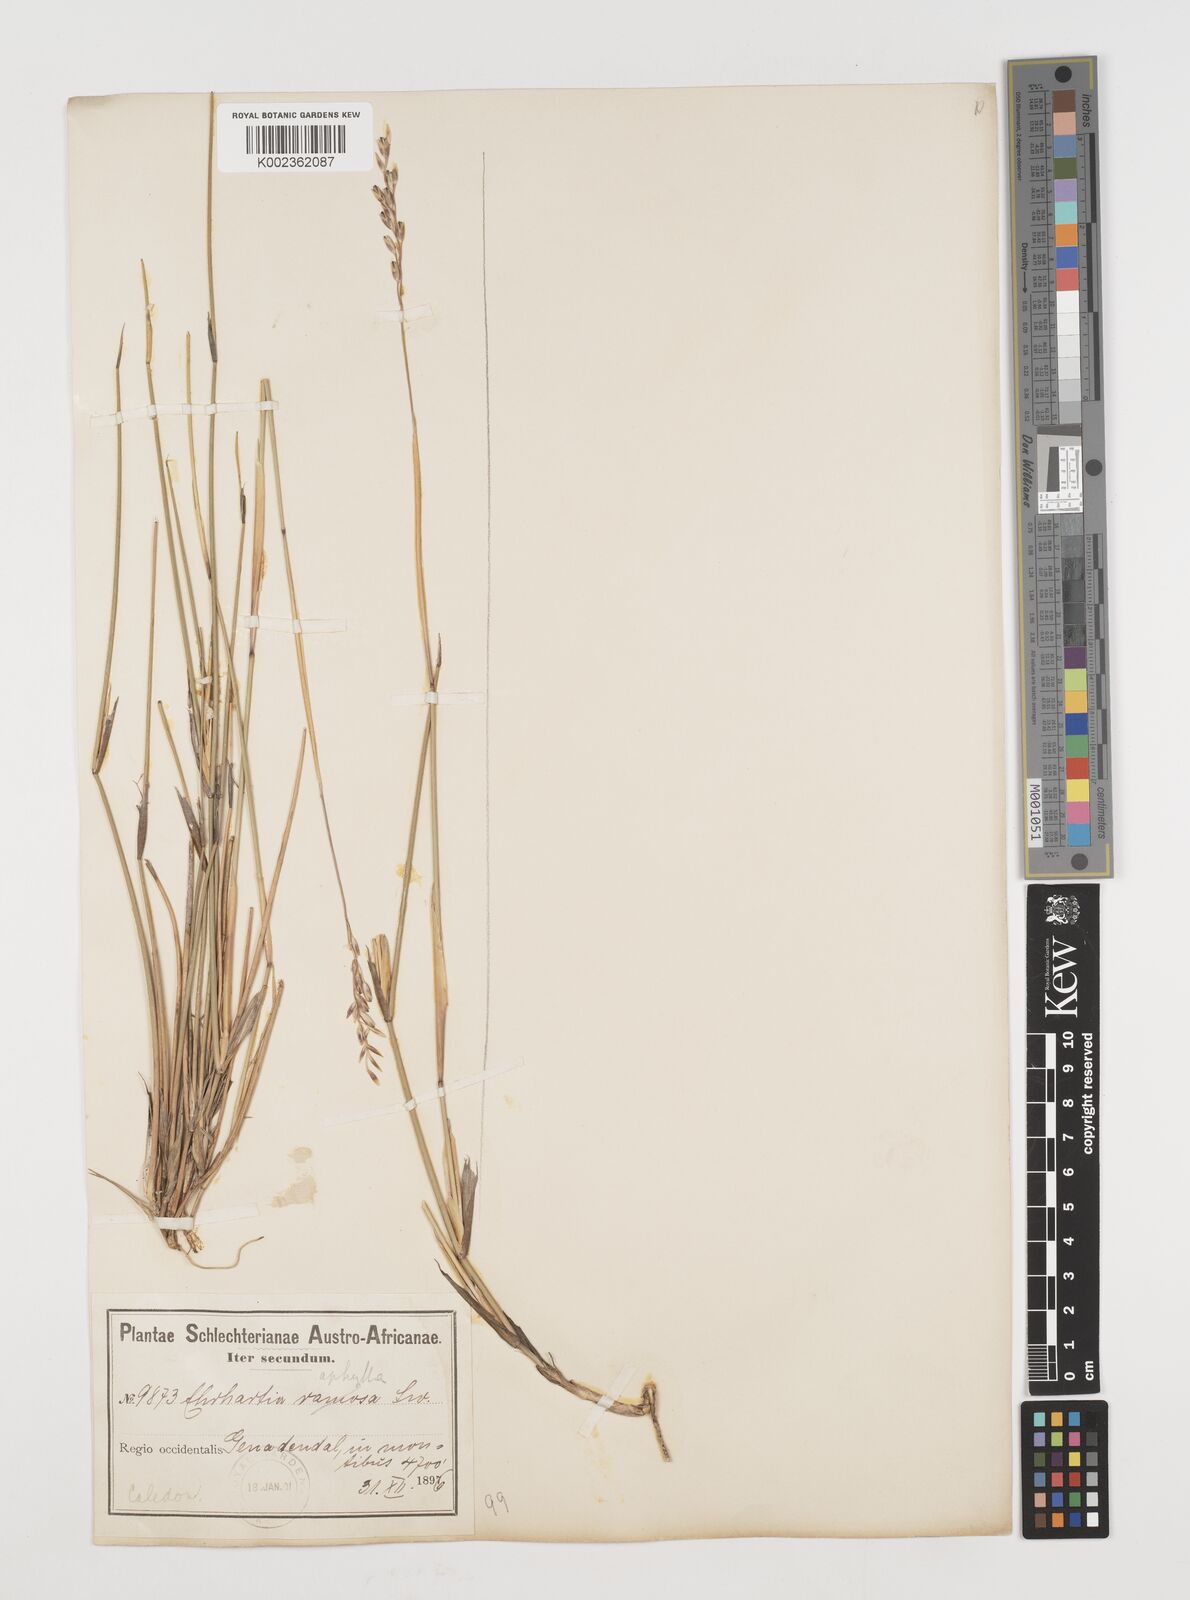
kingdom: Plantae
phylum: Tracheophyta
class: Liliopsida
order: Poales
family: Poaceae
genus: Ehrharta
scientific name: Ehrharta digyna
